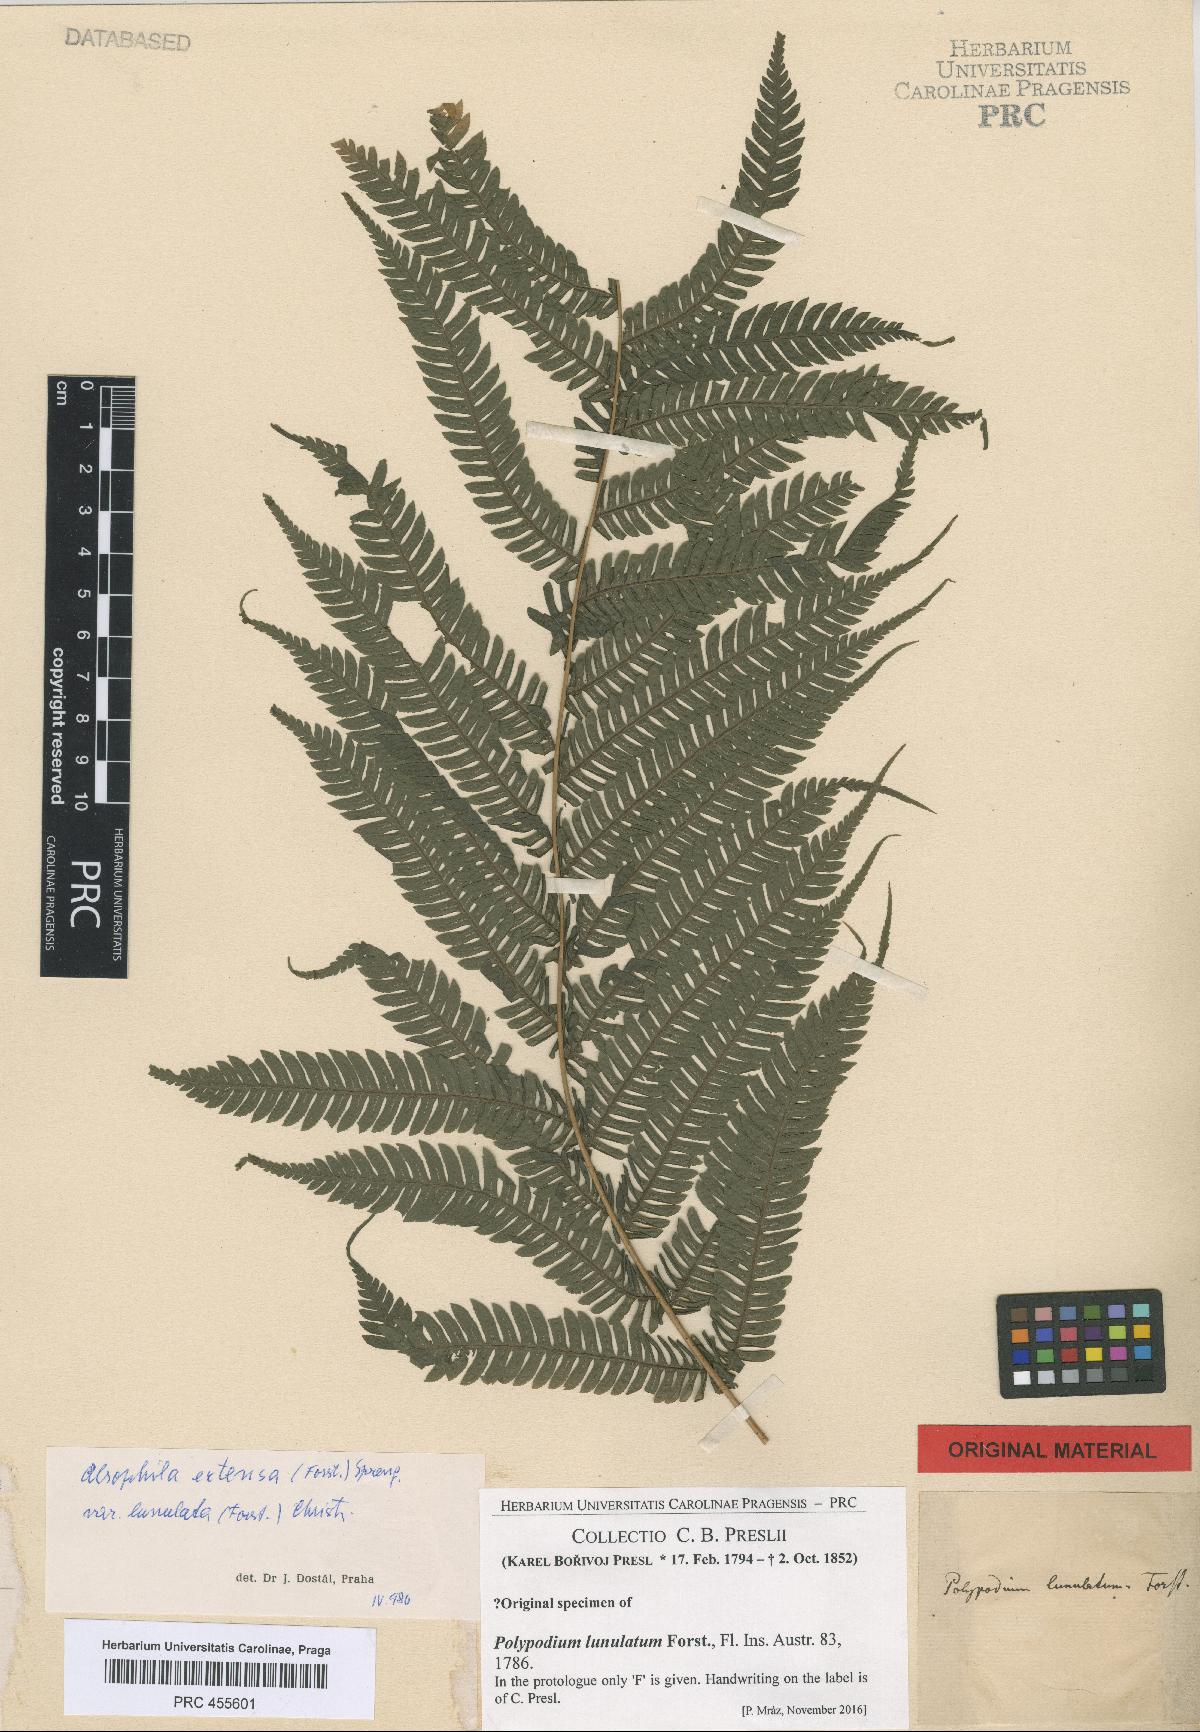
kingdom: Plantae
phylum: Tracheophyta
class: Polypodiopsida
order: Cyatheales
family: Cyatheaceae
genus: Sphaeropteris
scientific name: Sphaeropteris lunulata
